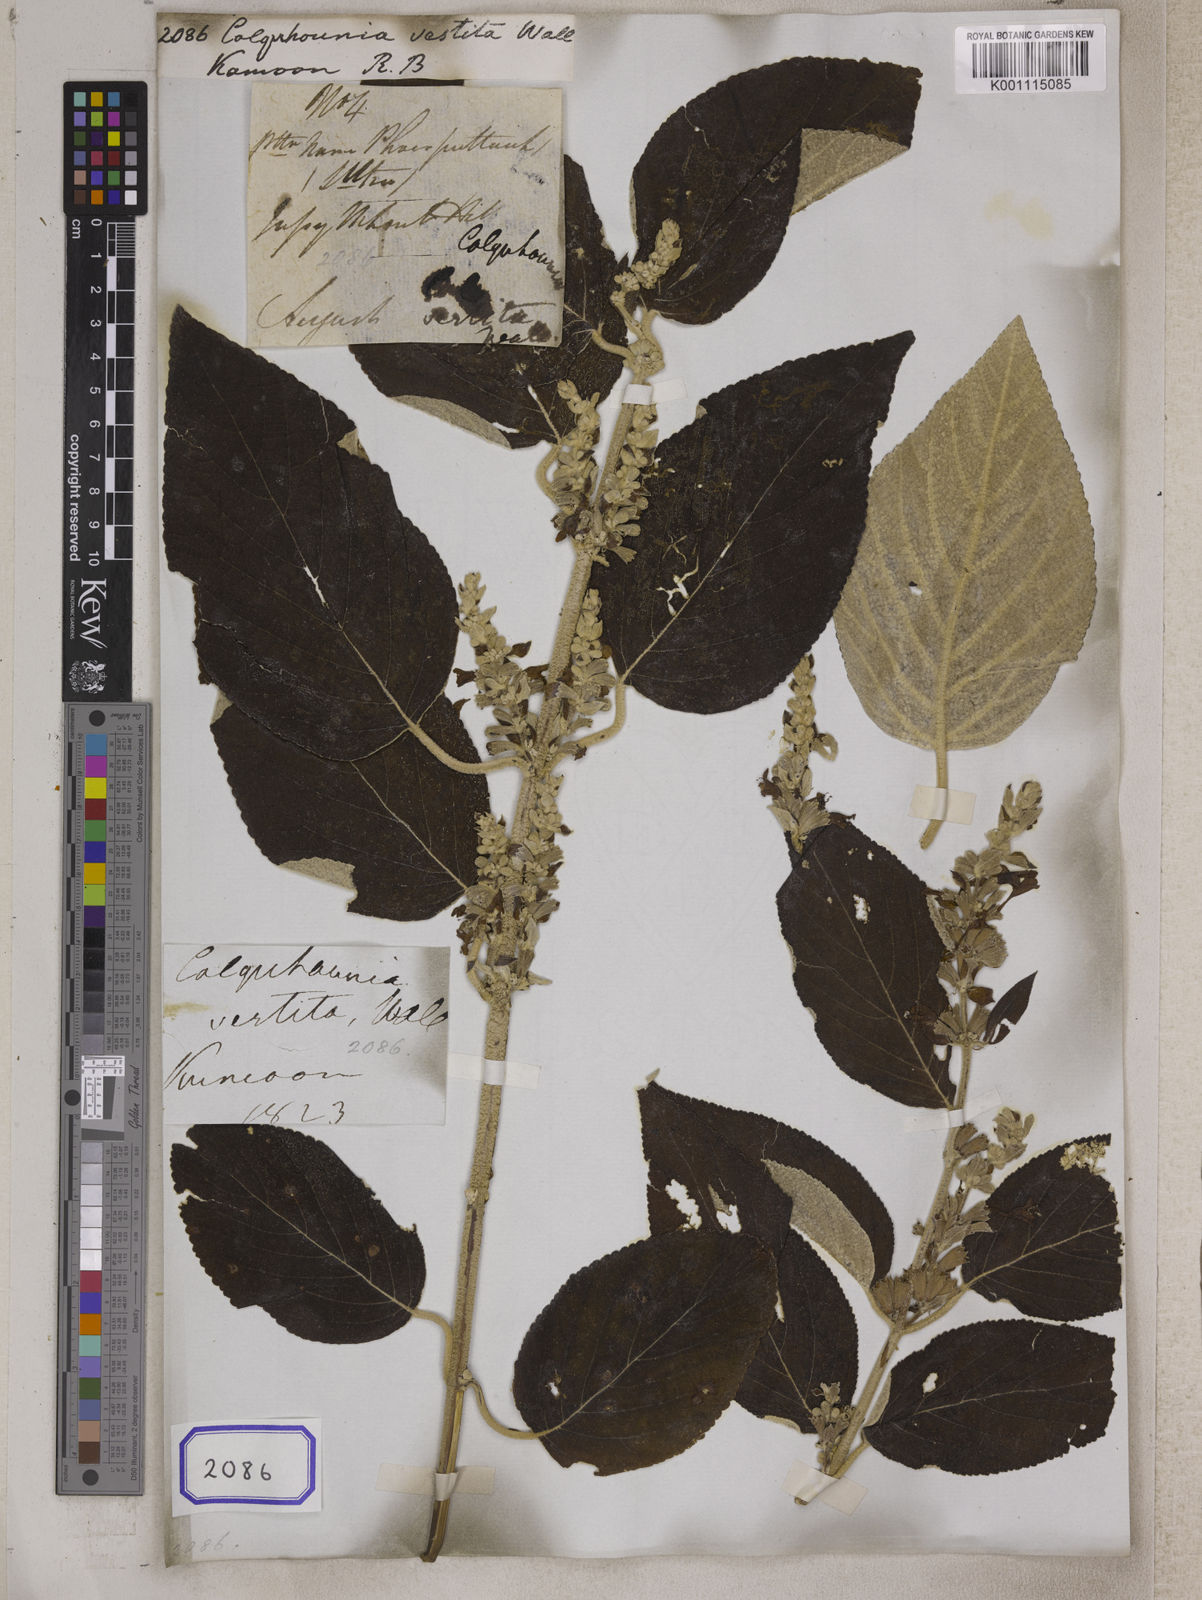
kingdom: Plantae
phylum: Tracheophyta
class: Magnoliopsida
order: Lamiales
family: Lamiaceae
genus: Colquhounia
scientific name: Colquhounia vestita
